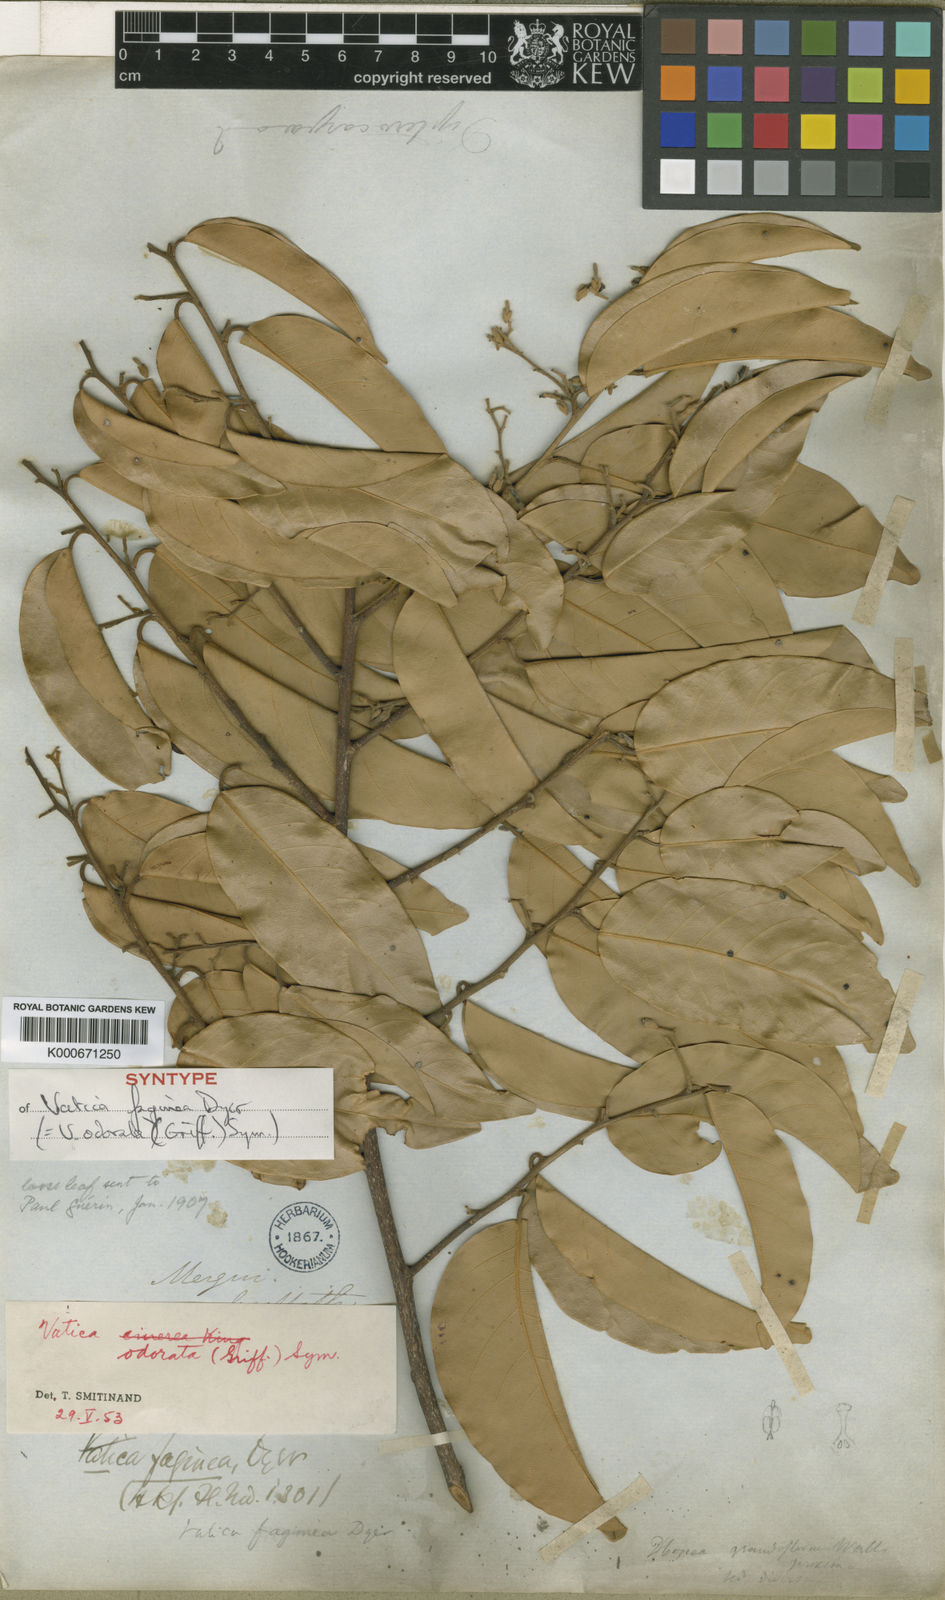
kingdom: Plantae
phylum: Tracheophyta
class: Magnoliopsida
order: Malvales
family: Dipterocarpaceae
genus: Vatica
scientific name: Vatica odorata
